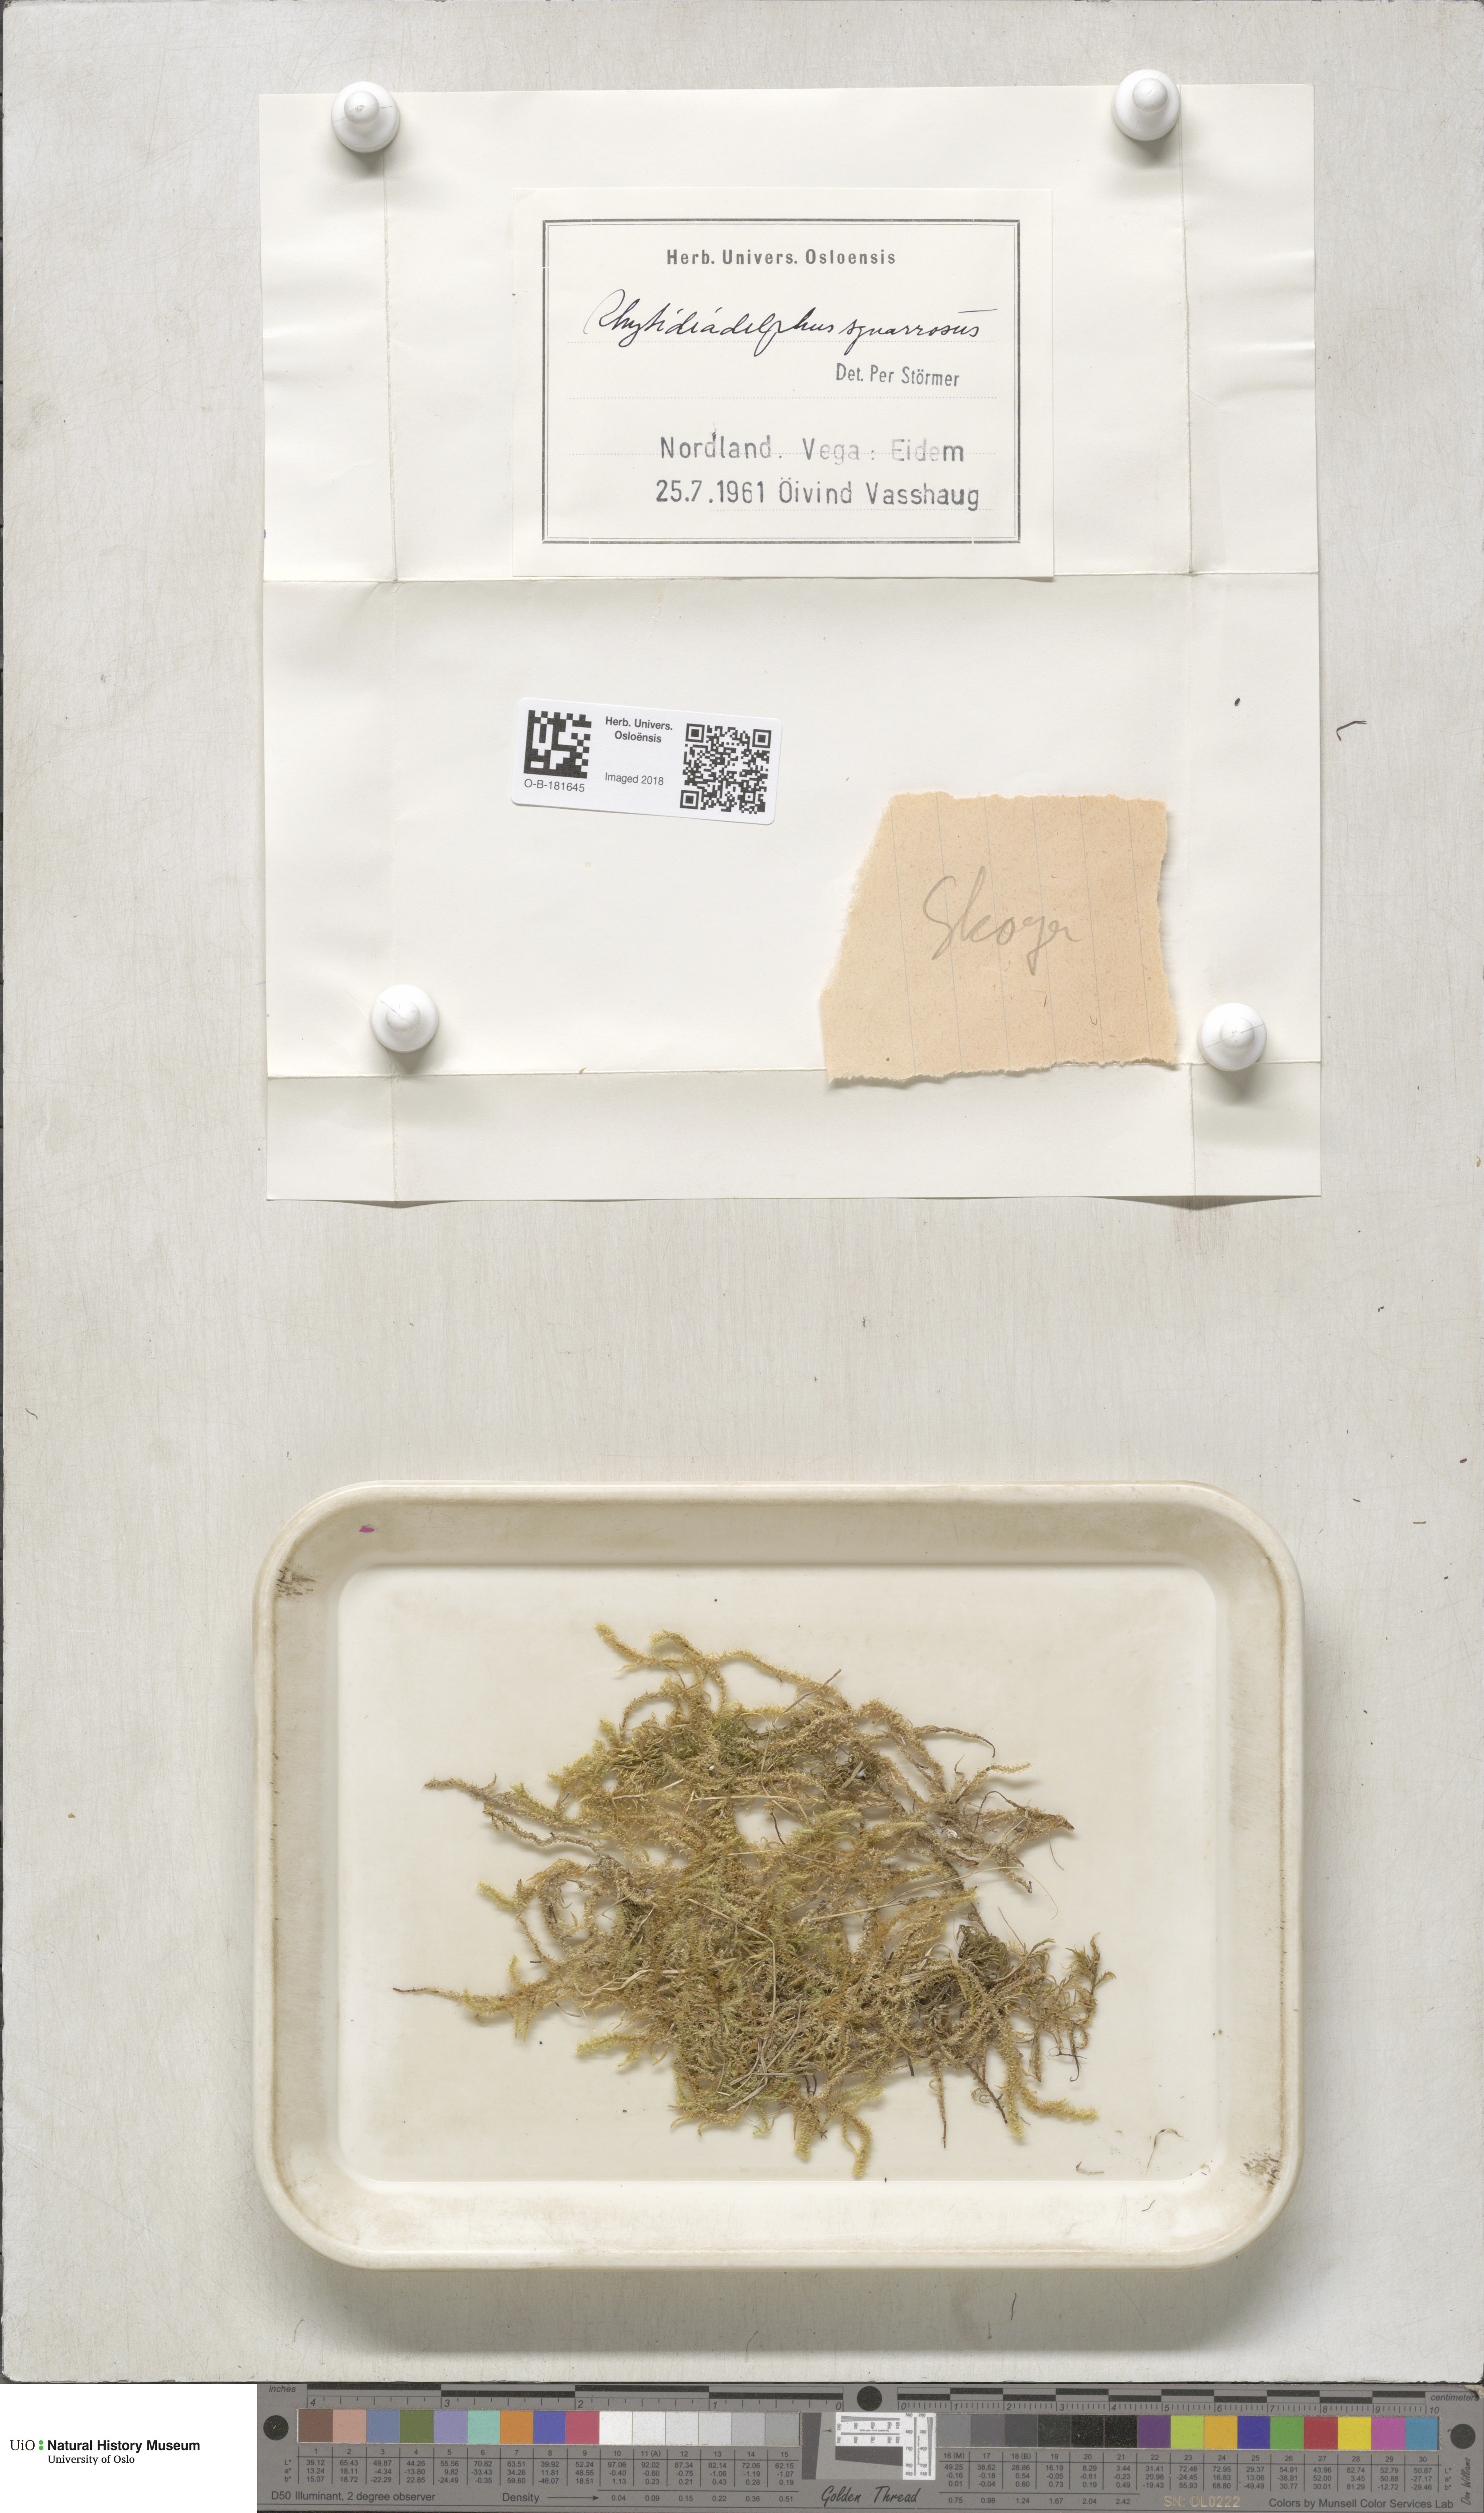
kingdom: Plantae
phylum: Bryophyta
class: Bryopsida
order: Hypnales
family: Hylocomiaceae
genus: Rhytidiadelphus
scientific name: Rhytidiadelphus squarrosus
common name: Springy turf-moss
